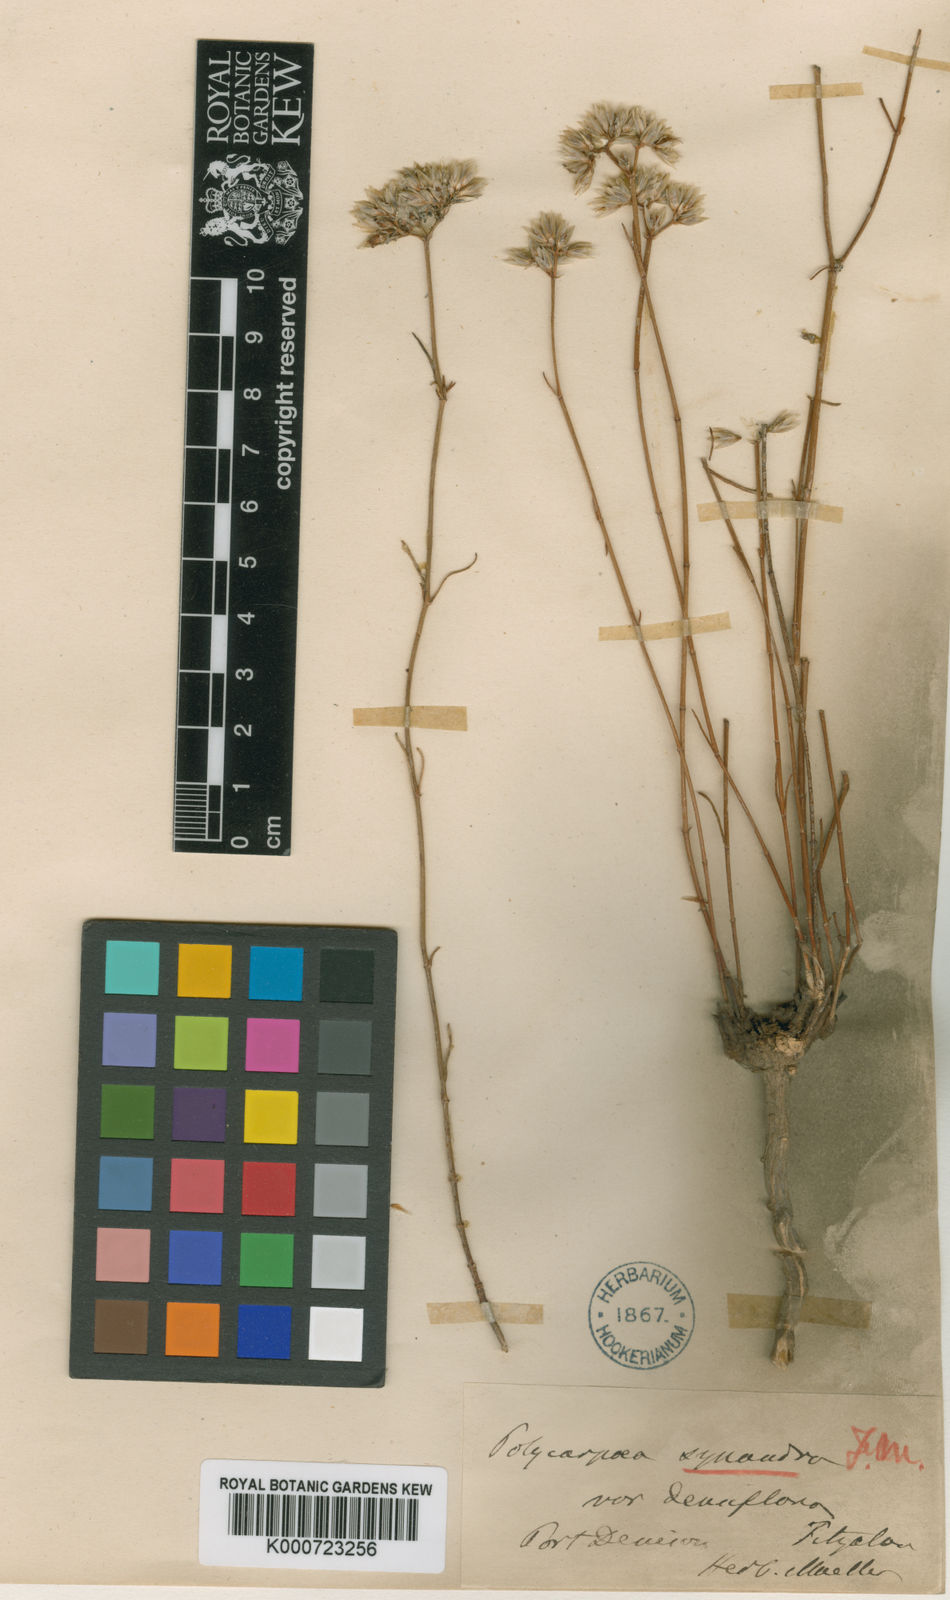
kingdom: Plantae
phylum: Tracheophyta
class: Magnoliopsida
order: Caryophyllales
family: Caryophyllaceae
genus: Polycarpaea
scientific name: Polycarpaea spirostylis
